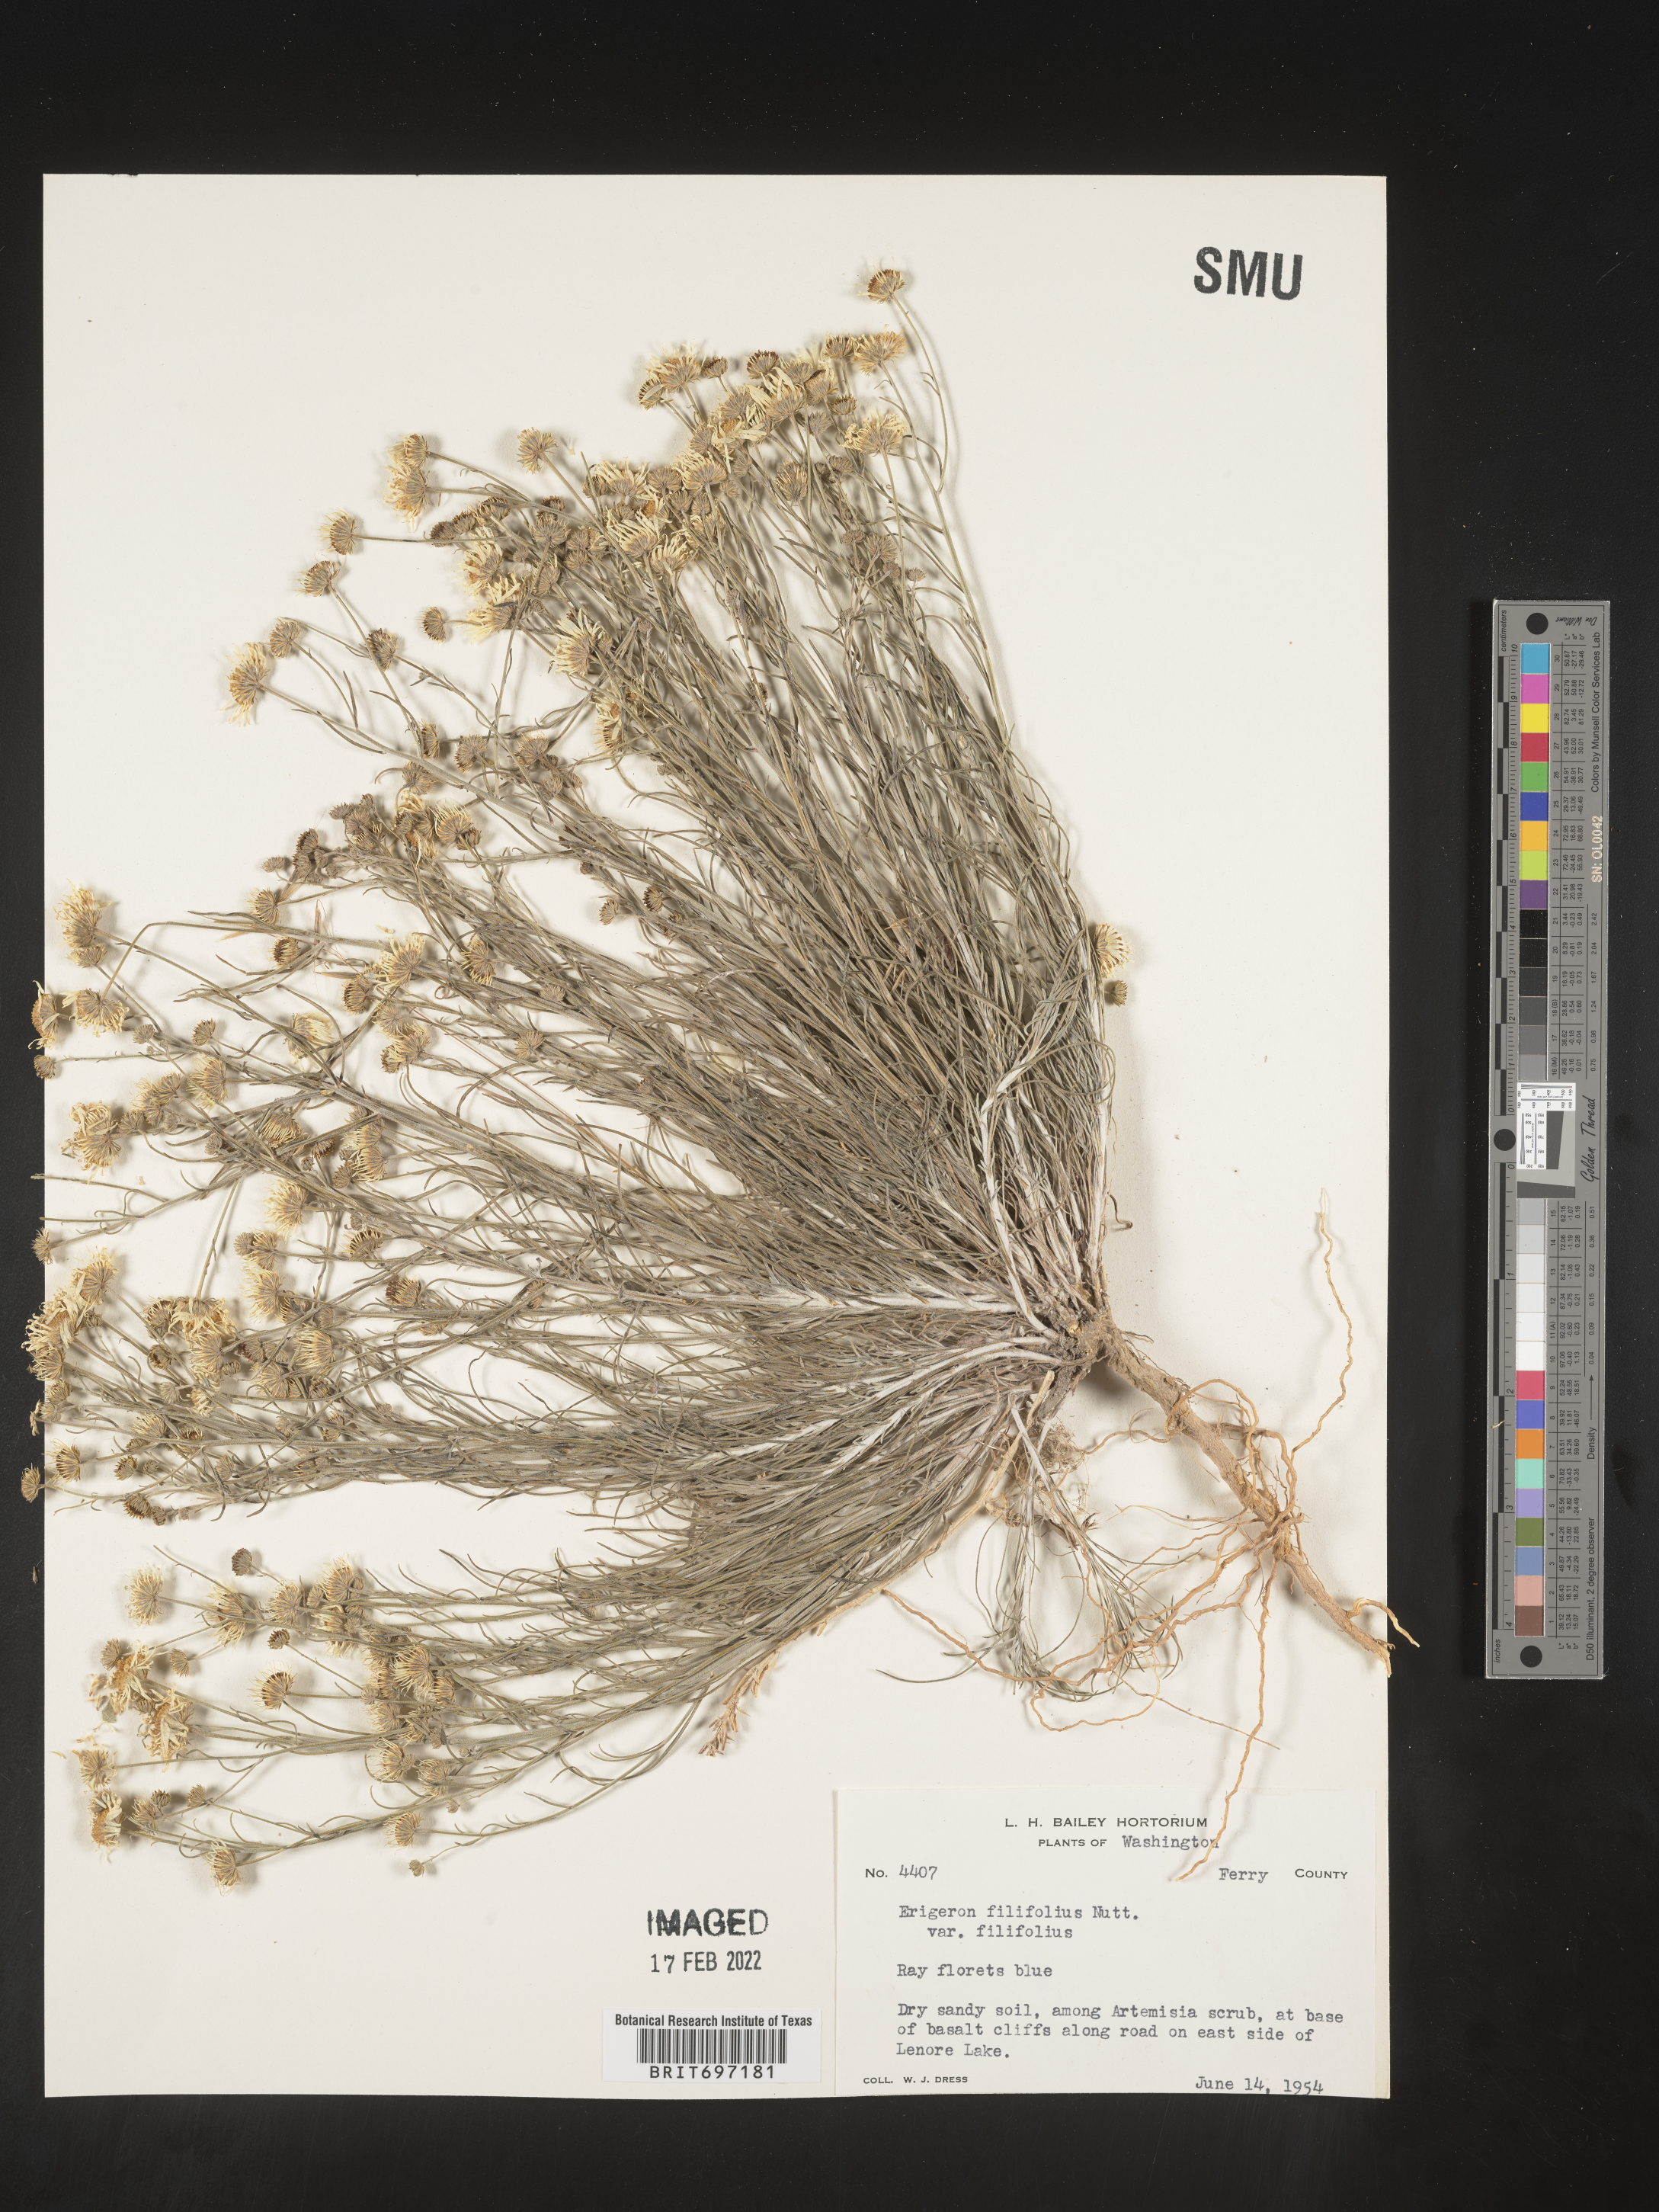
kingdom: Plantae
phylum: Tracheophyta
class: Magnoliopsida
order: Asterales
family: Asteraceae
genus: Erigeron
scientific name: Erigeron filifolius
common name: Threadleaf fleabane
